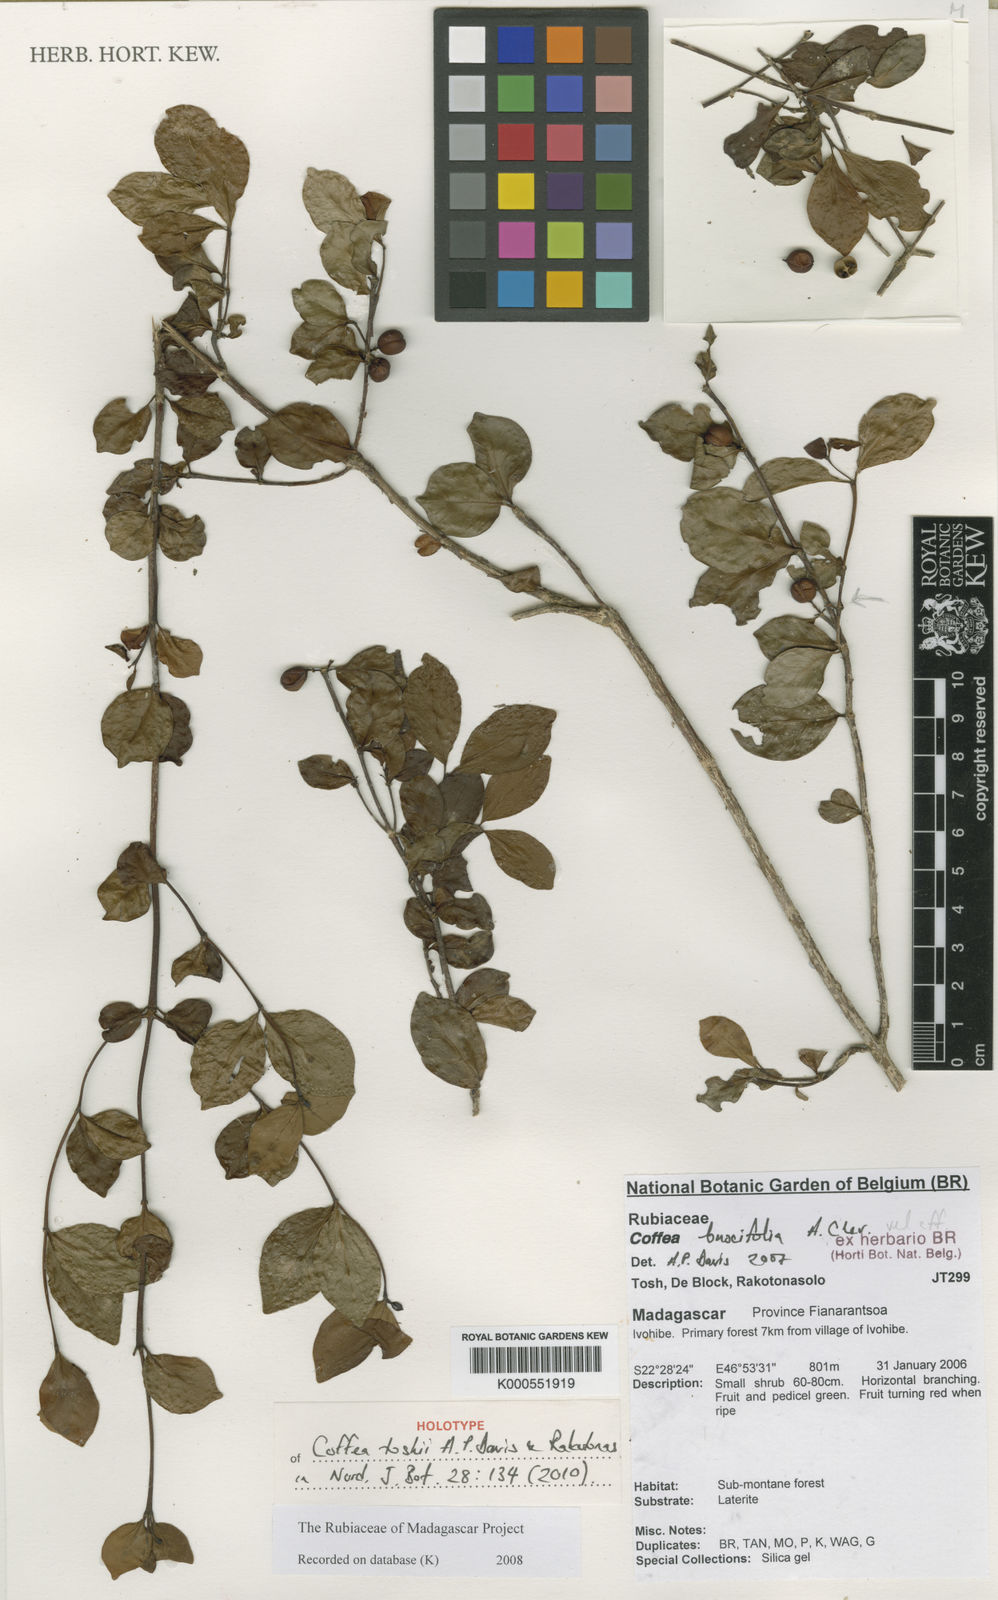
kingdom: Plantae
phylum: Tracheophyta
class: Magnoliopsida
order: Gentianales
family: Rubiaceae
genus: Coffea
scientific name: Coffea toshii
